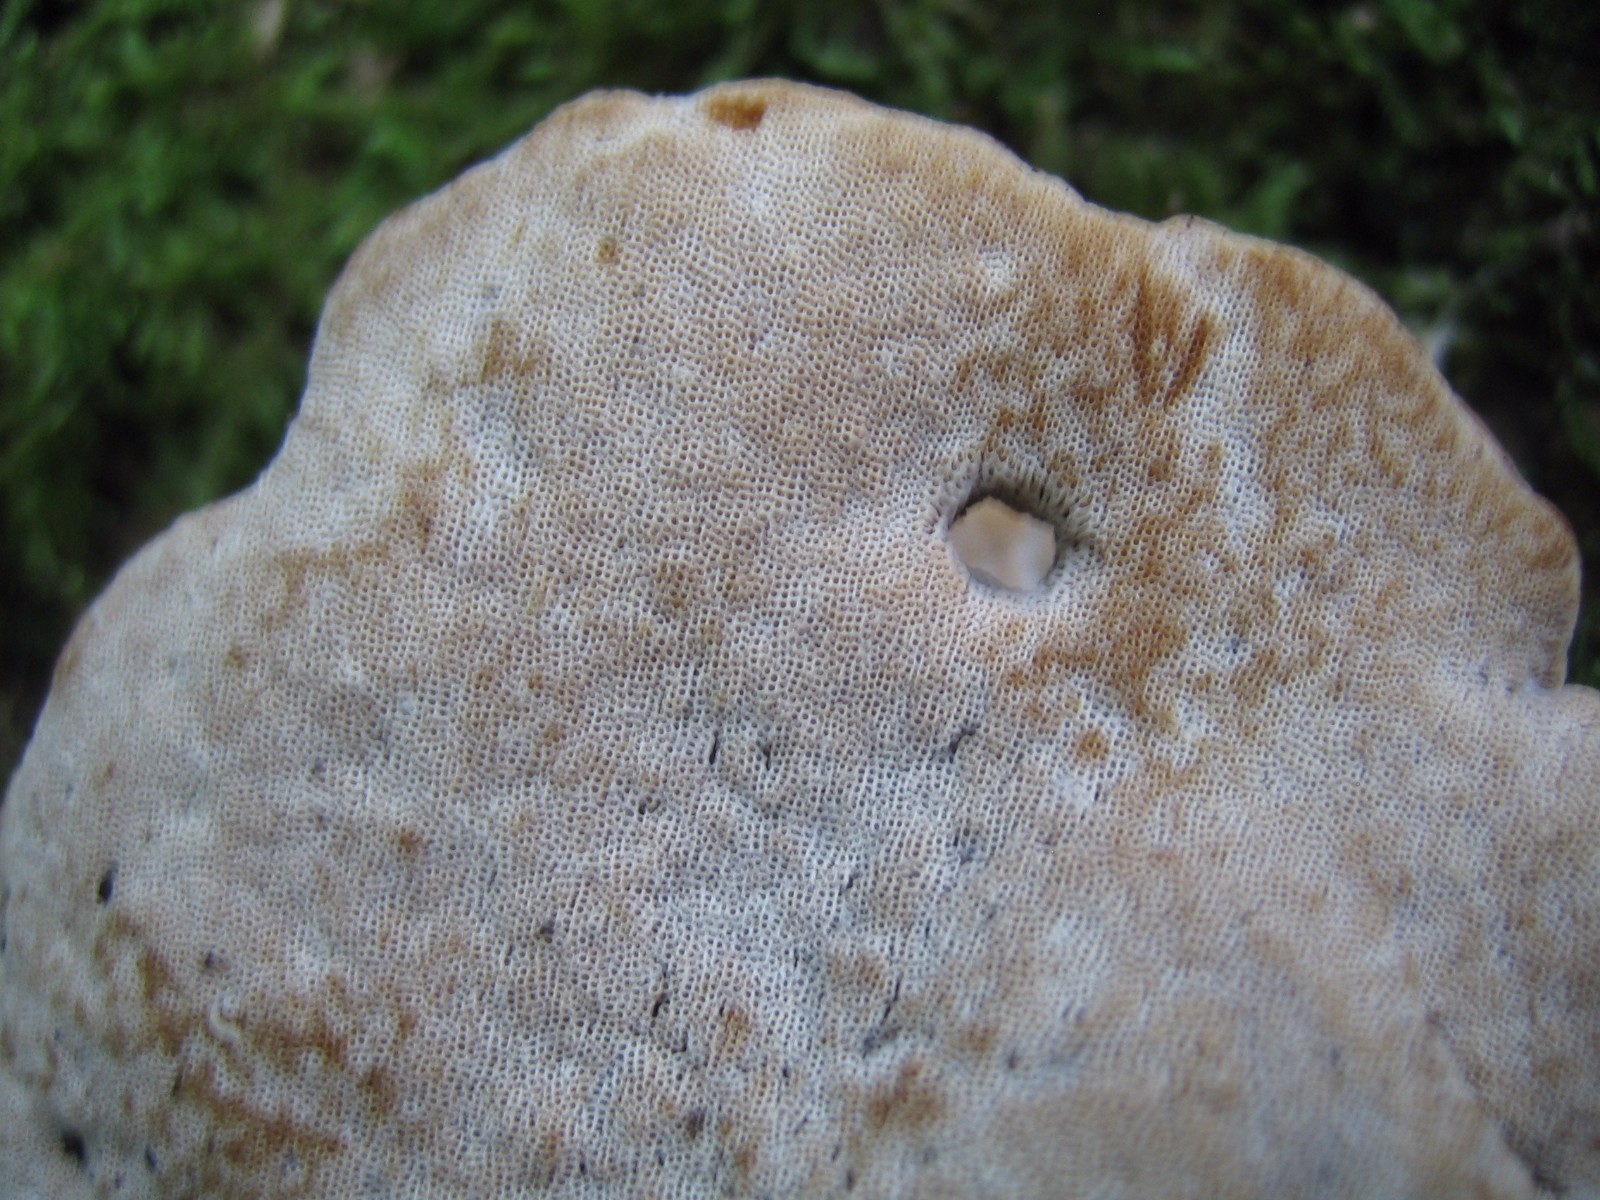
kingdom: Fungi
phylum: Basidiomycota
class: Agaricomycetes
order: Polyporales
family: Polyporaceae
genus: Cerioporus
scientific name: Cerioporus varius
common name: foranderlig stilkporesvamp
